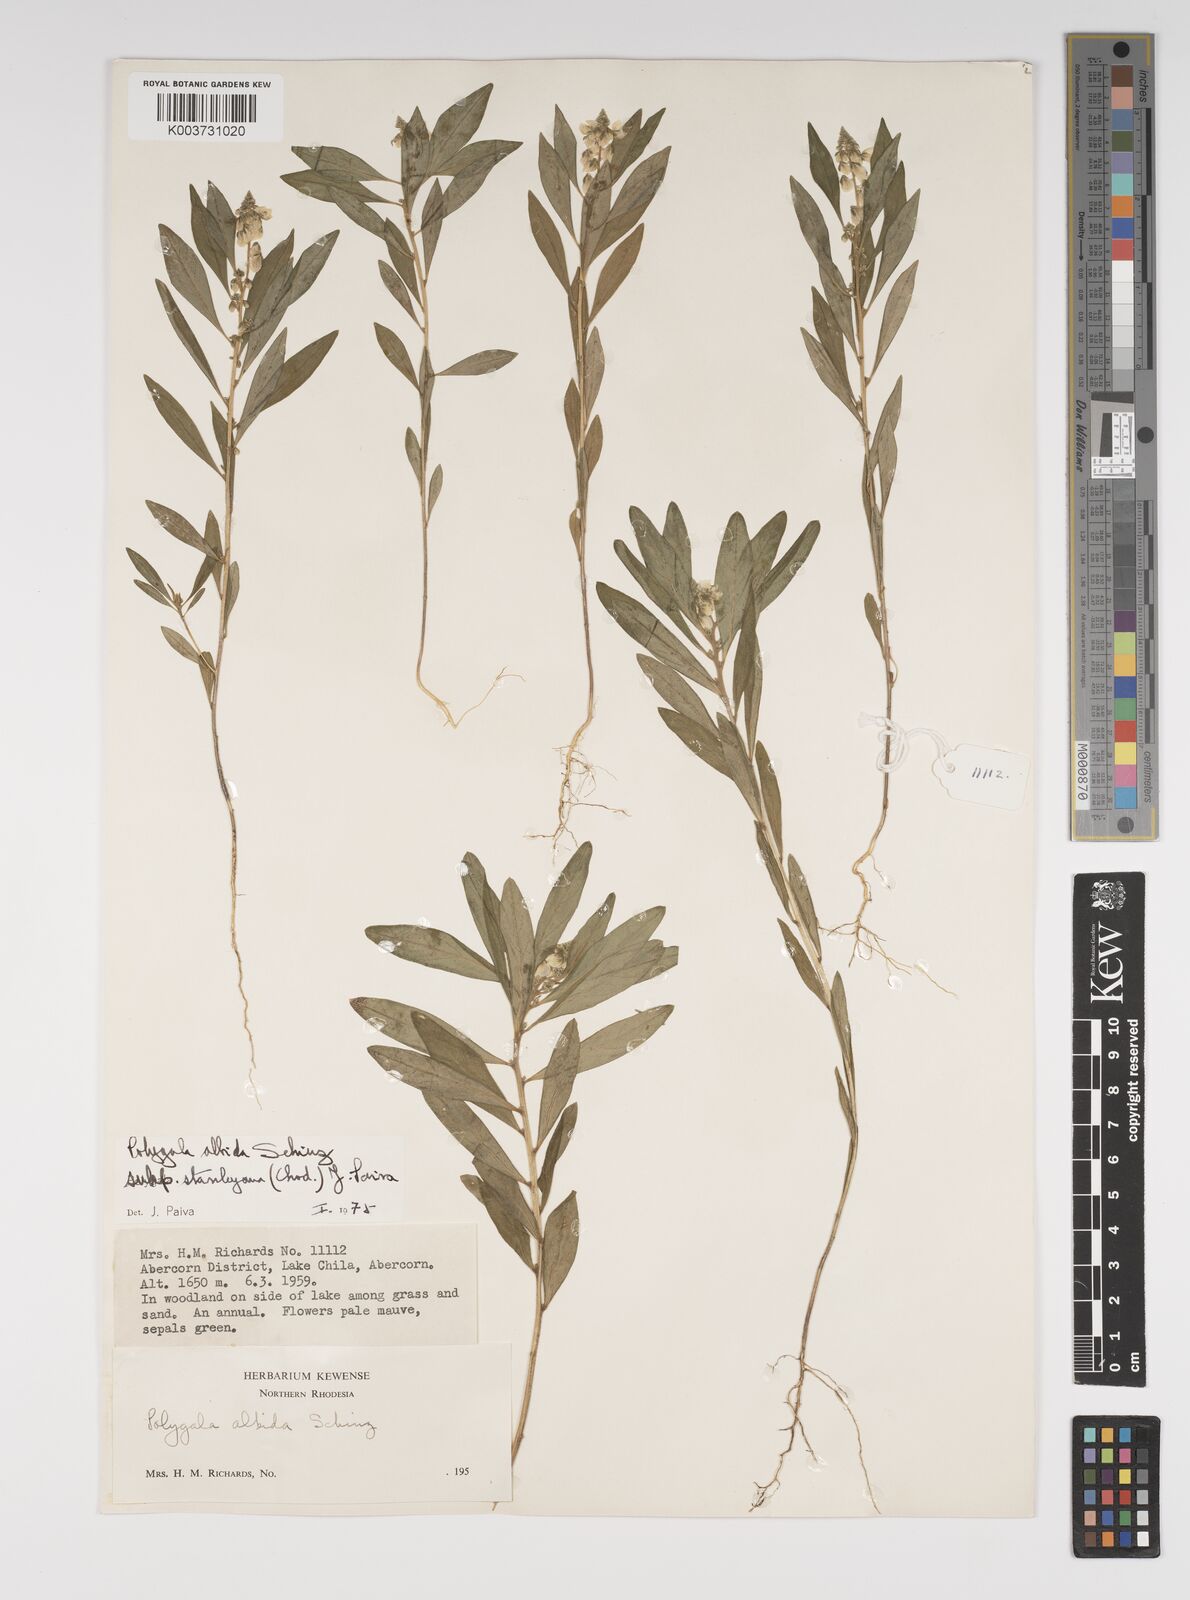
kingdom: Plantae
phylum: Tracheophyta
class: Magnoliopsida
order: Fabales
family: Polygalaceae
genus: Polygala
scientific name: Polygala albida
